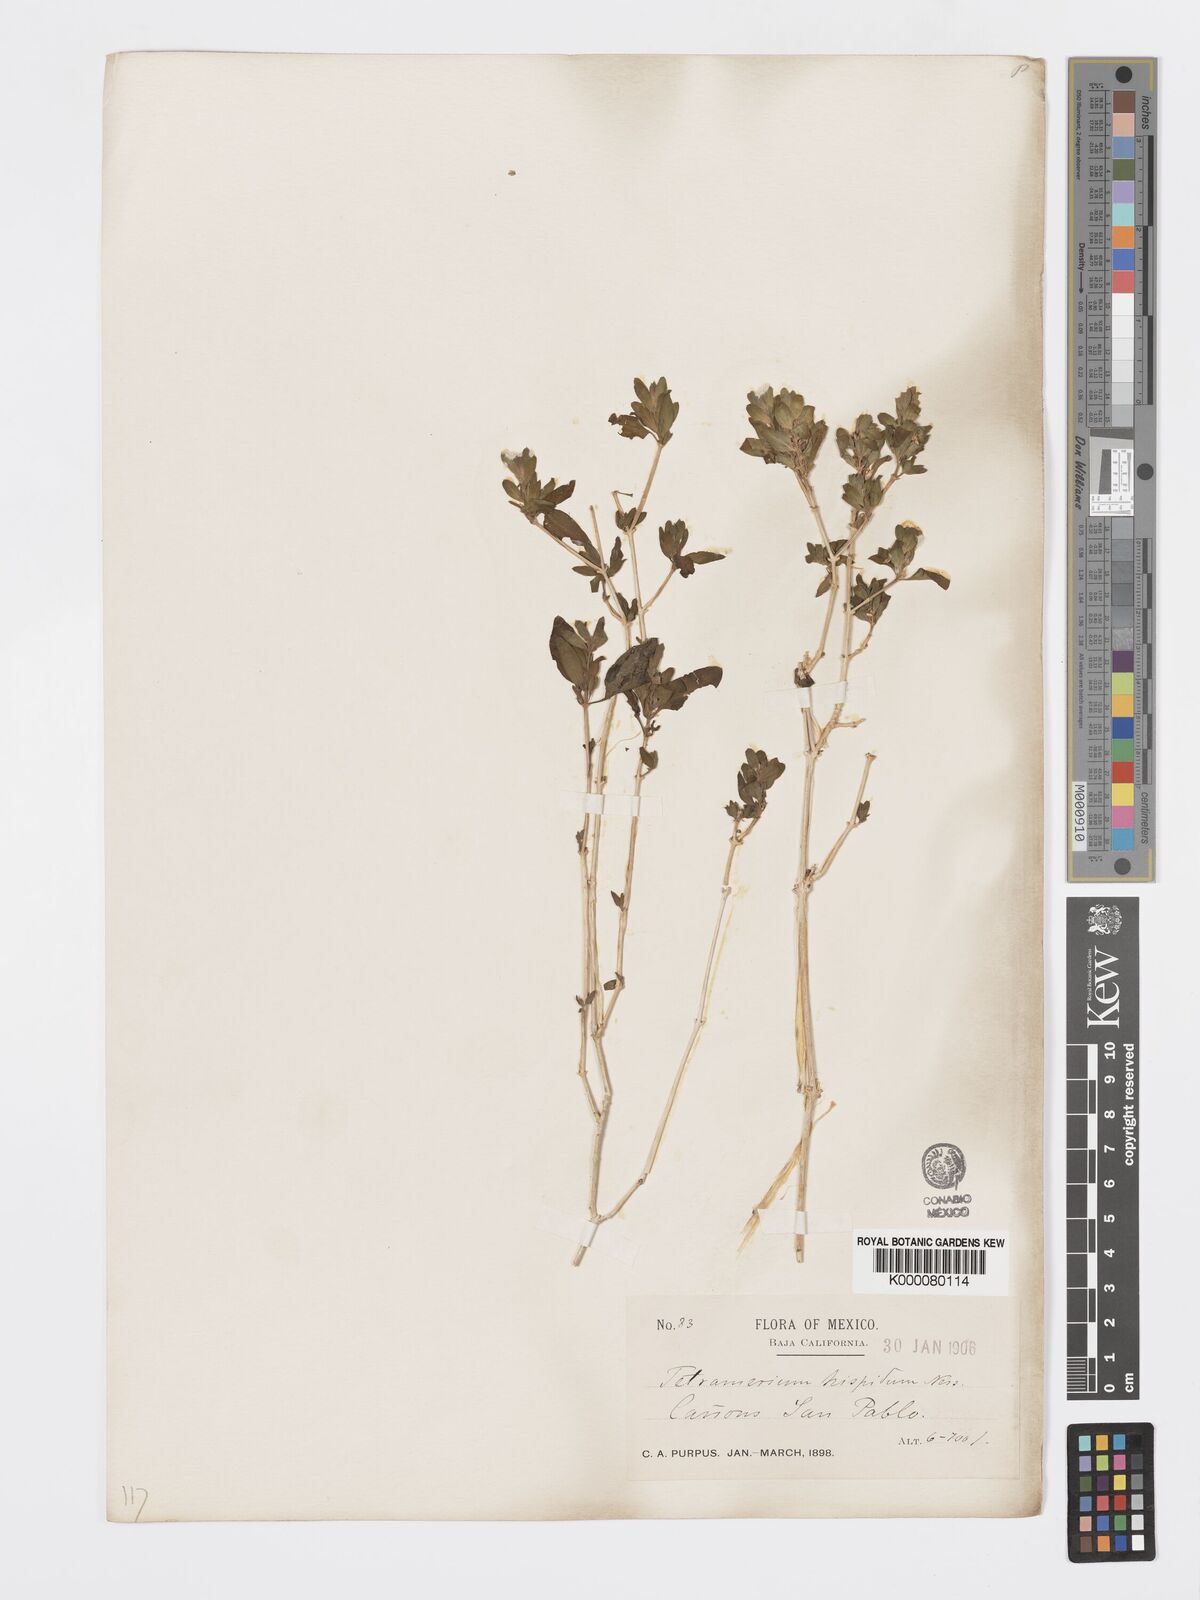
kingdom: Plantae
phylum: Tracheophyta
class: Magnoliopsida
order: Lamiales
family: Acanthaceae
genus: Tetramerium
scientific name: Tetramerium nervosum
